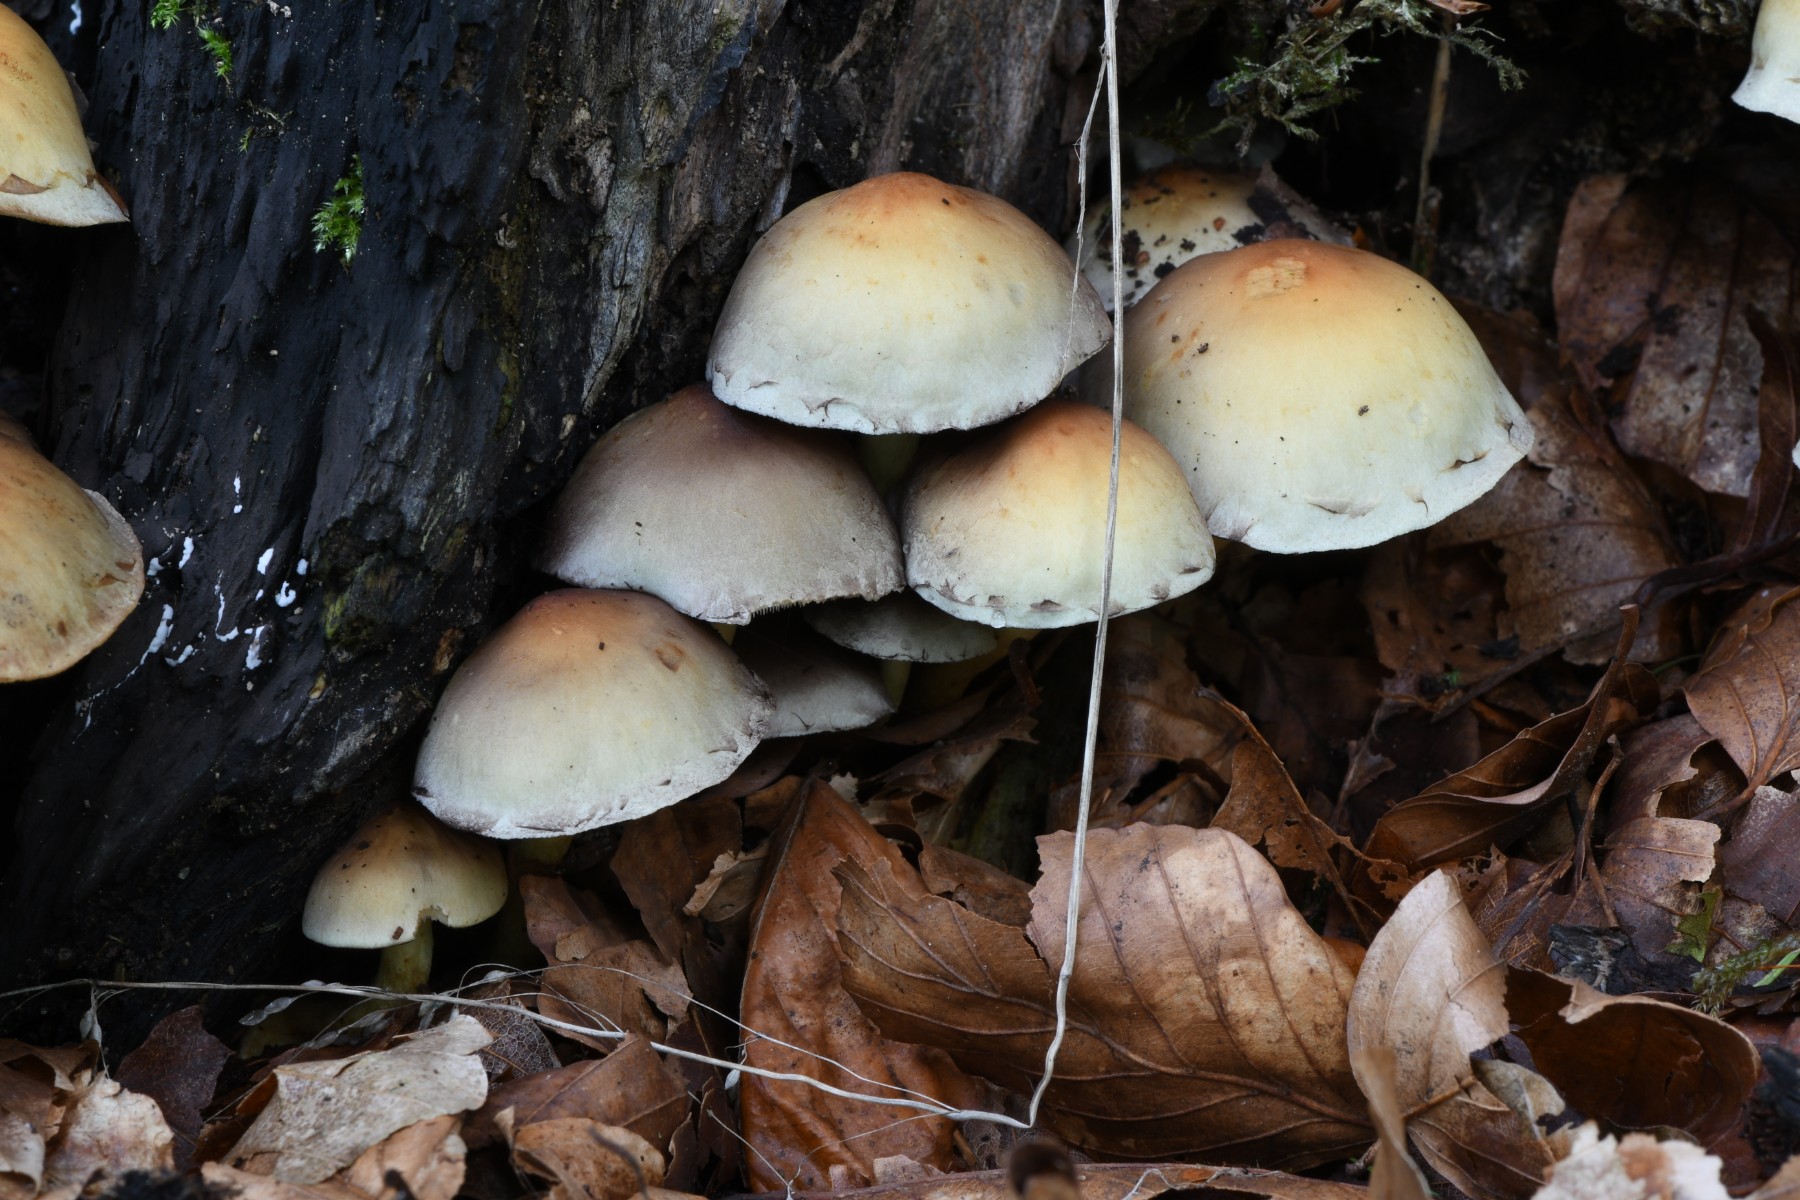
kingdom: Fungi
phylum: Basidiomycota
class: Agaricomycetes
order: Agaricales
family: Strophariaceae
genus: Hypholoma
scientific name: Hypholoma fasciculare
